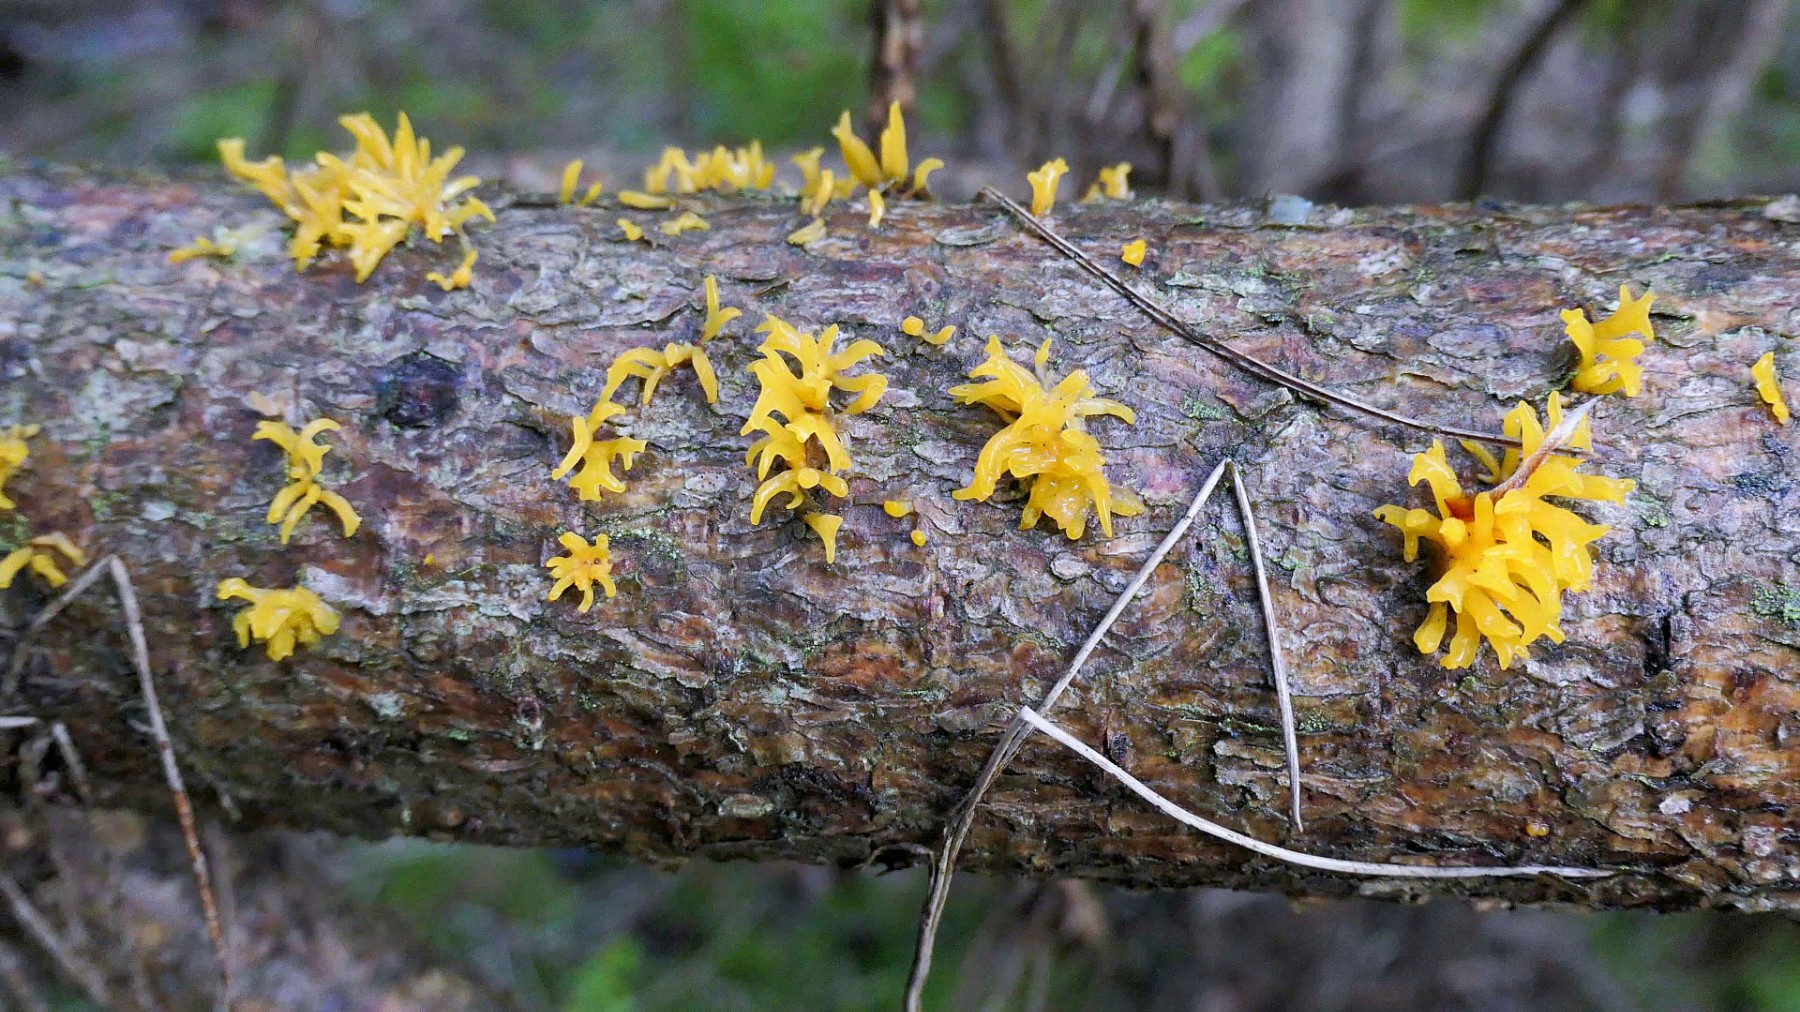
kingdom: Fungi
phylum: Basidiomycota
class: Dacrymycetes
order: Dacrymycetales
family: Dacrymycetaceae
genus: Calocera
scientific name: Calocera furcata
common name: fyrre-guldgaffel
